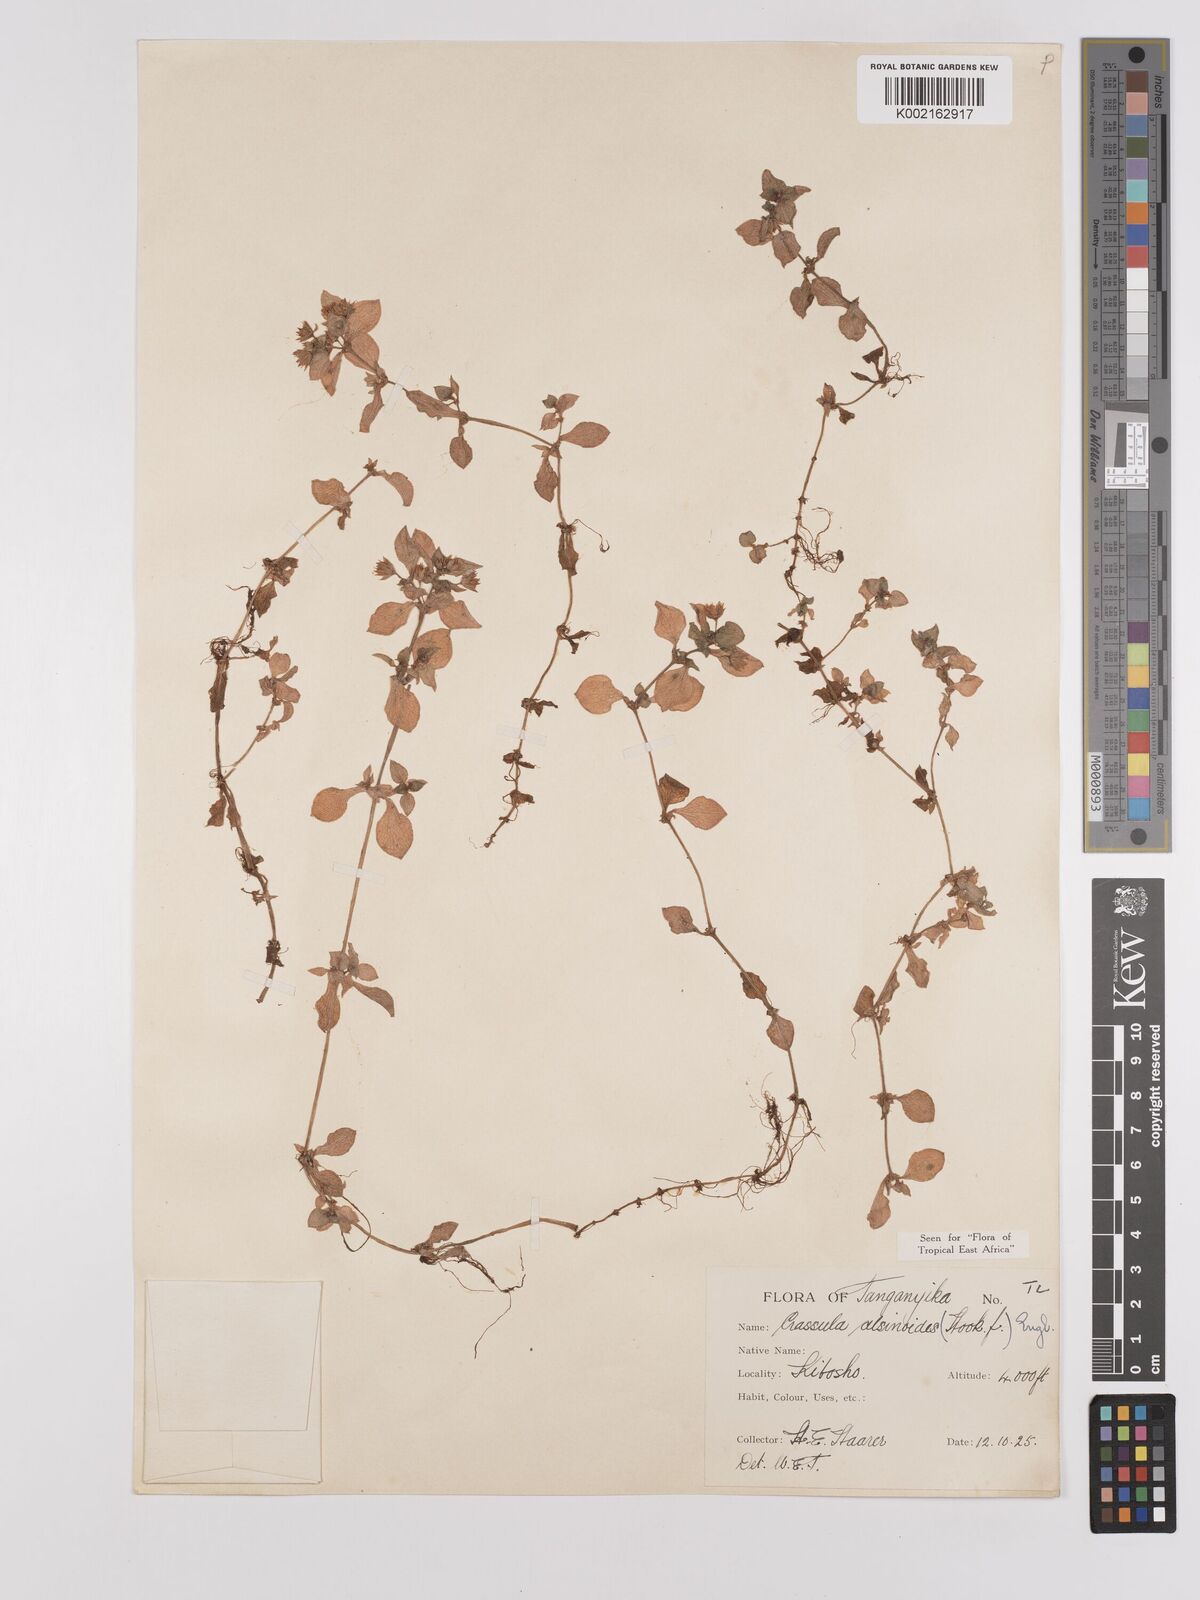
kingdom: Plantae
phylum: Tracheophyta
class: Magnoliopsida
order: Saxifragales
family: Crassulaceae
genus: Crassula
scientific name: Crassula alsinoides
